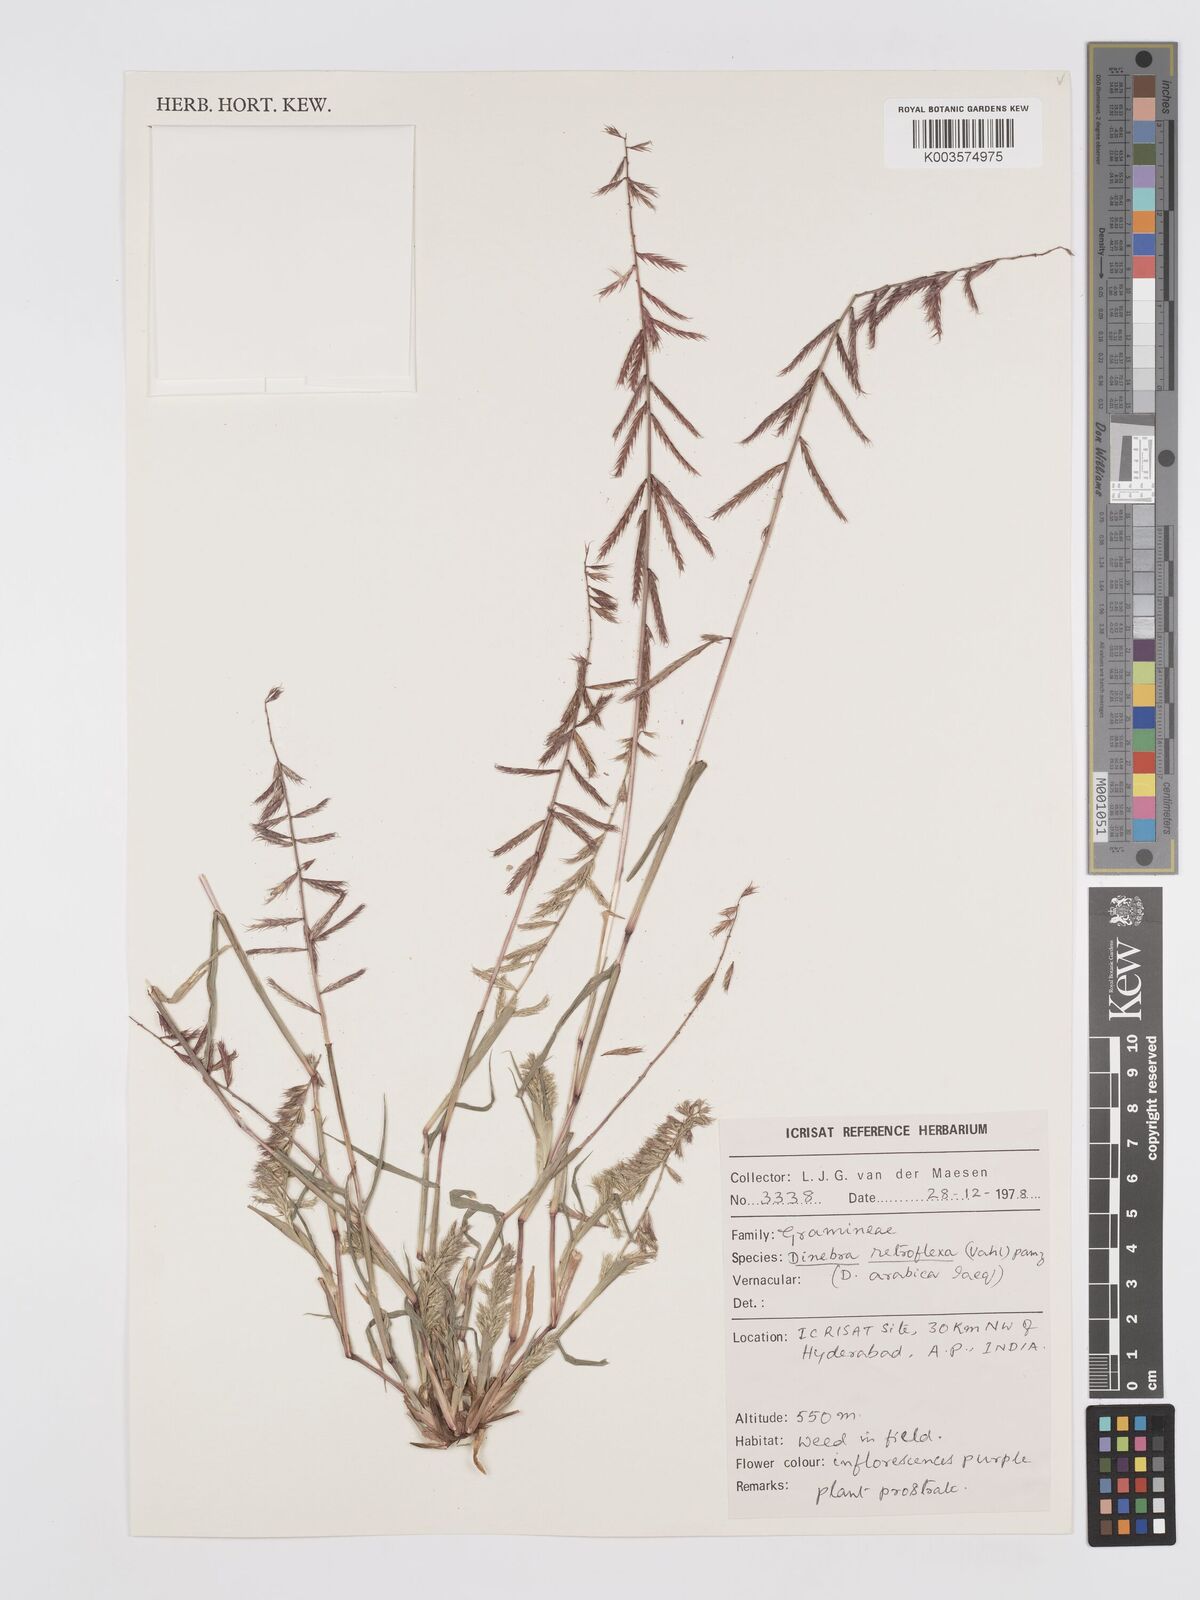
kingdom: Plantae
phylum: Tracheophyta
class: Liliopsida
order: Poales
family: Poaceae
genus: Dinebra
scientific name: Dinebra retroflexa
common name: Viper grass
